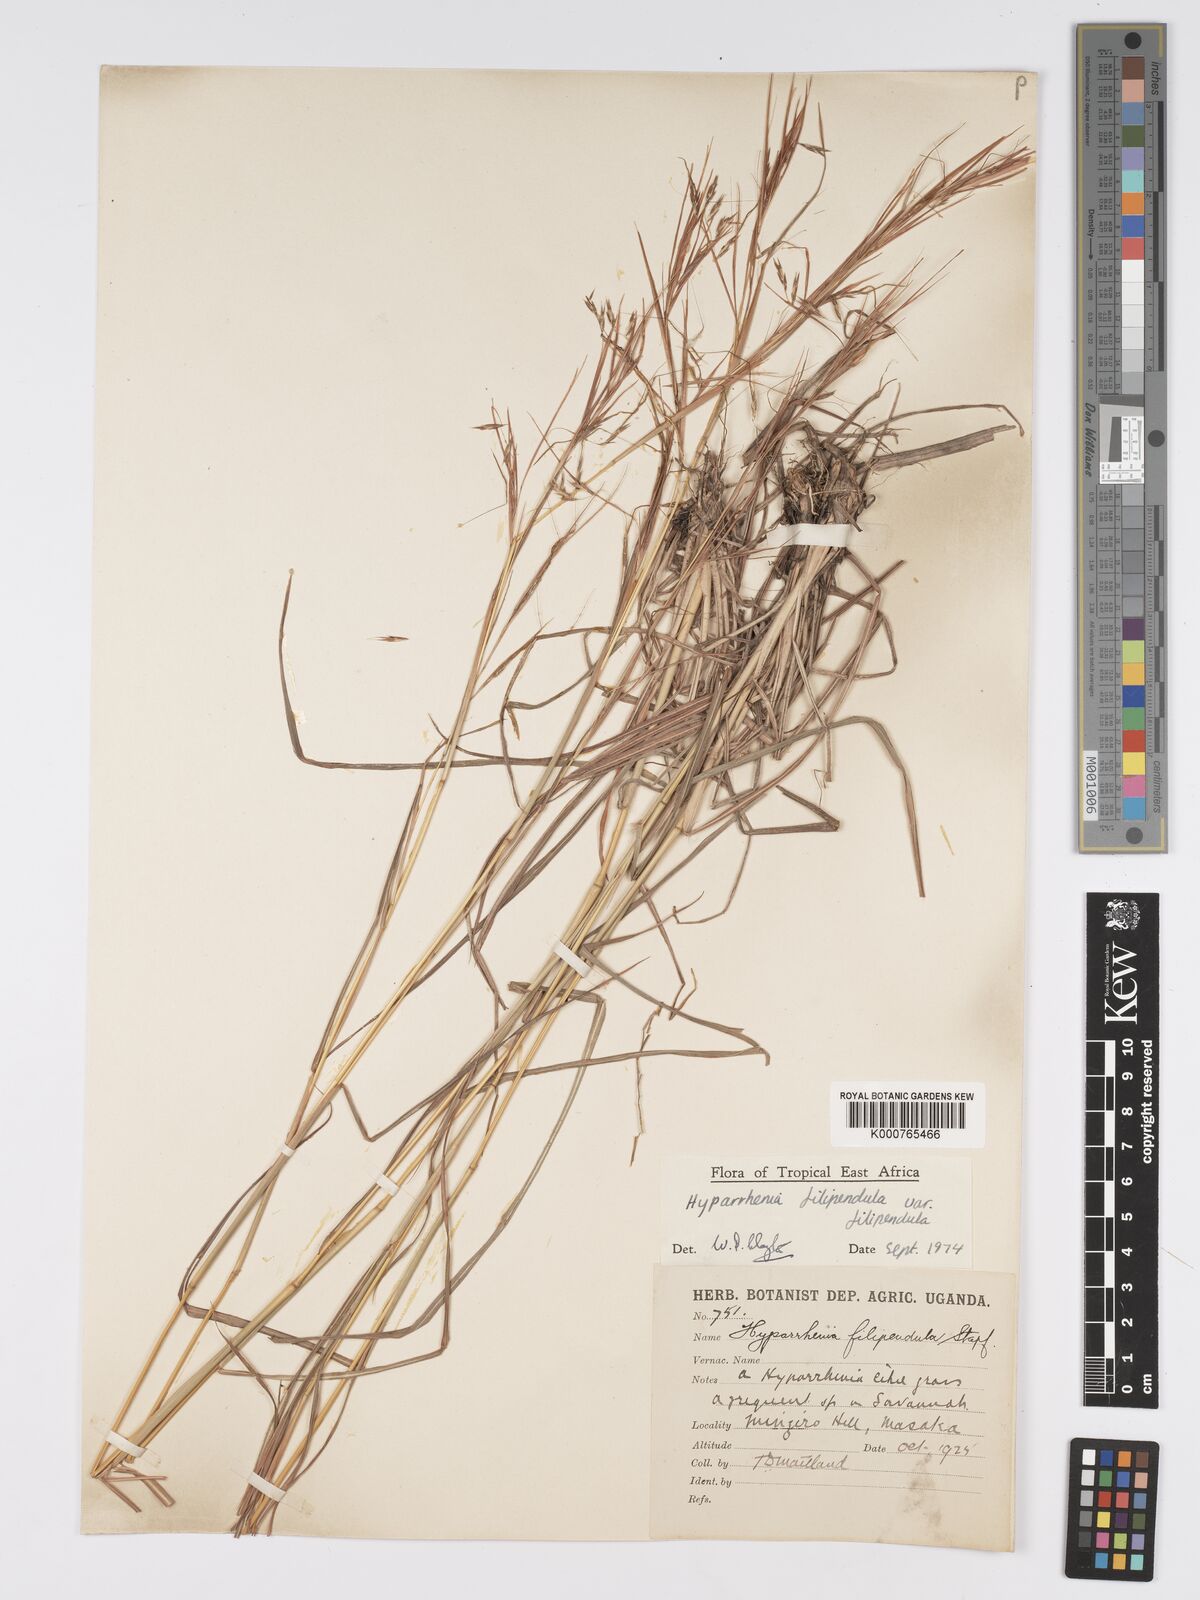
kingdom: Plantae
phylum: Tracheophyta
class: Liliopsida
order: Poales
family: Poaceae
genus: Hyparrhenia
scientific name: Hyparrhenia filipendula
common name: Tambookie grass
